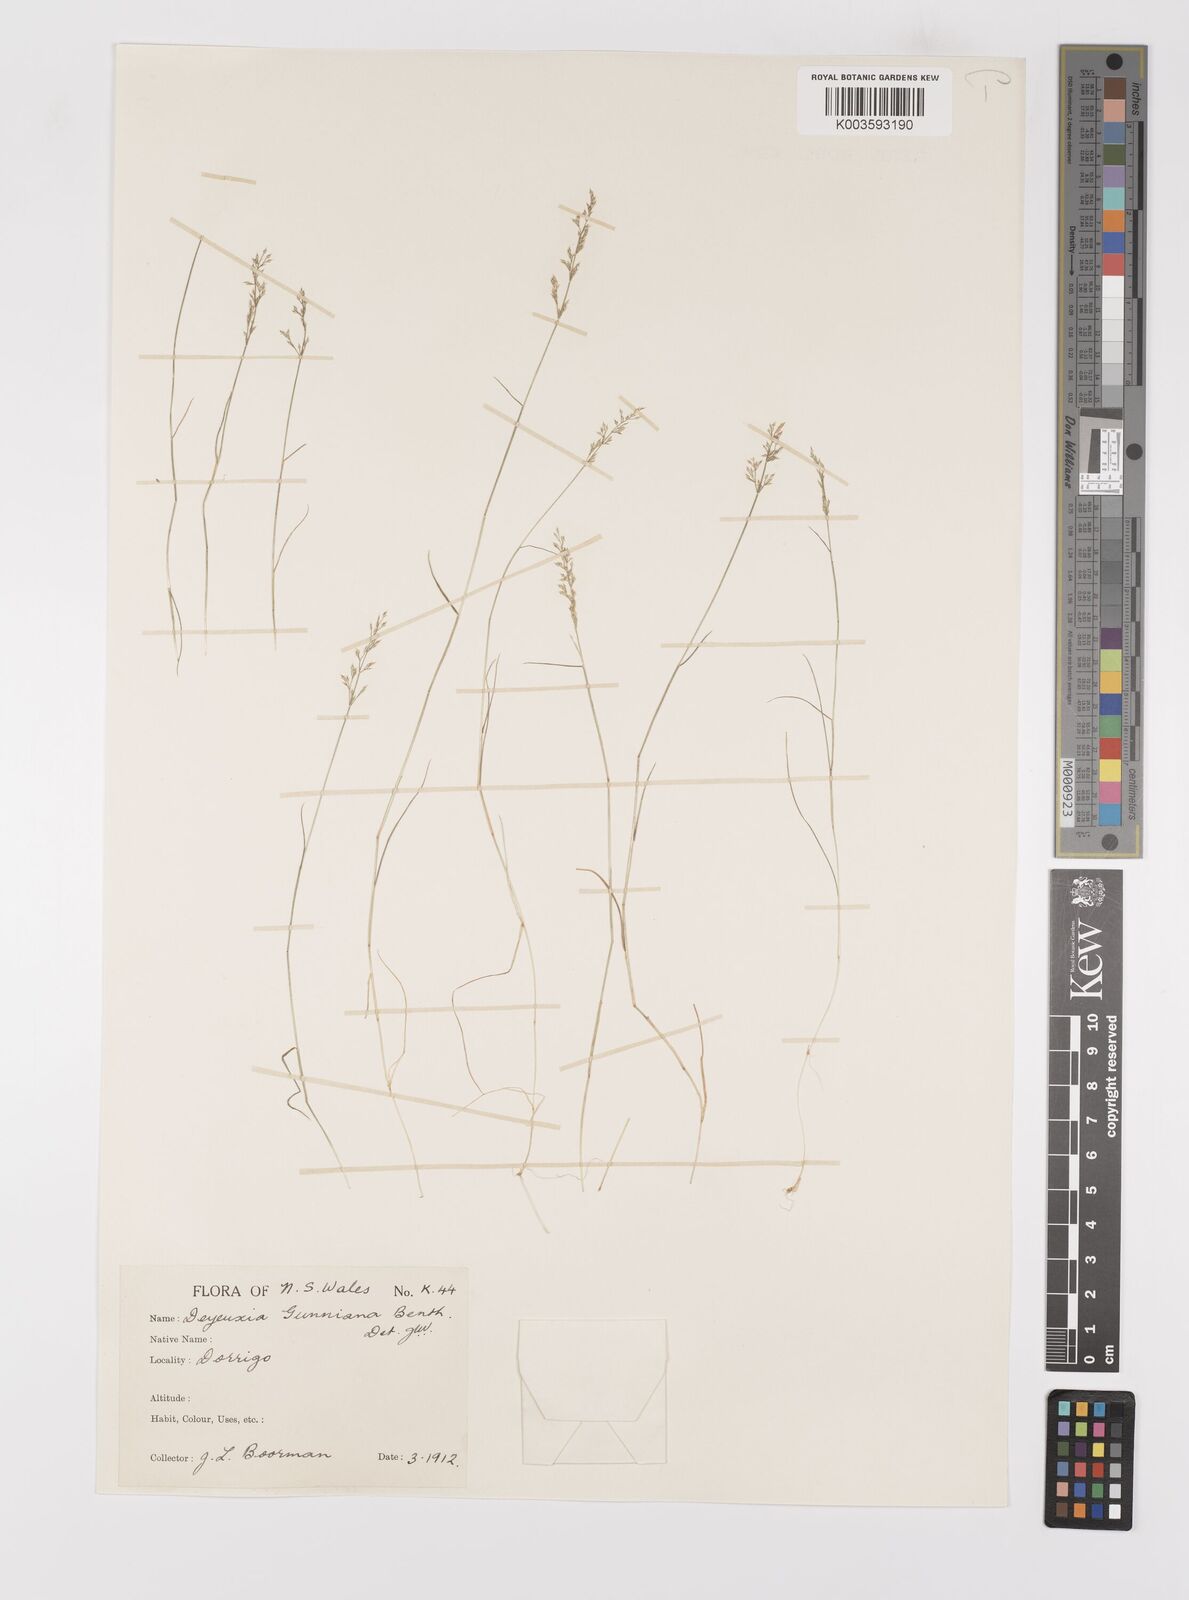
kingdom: Plantae
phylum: Tracheophyta
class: Liliopsida
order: Poales
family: Poaceae
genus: Ancistragrostis
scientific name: Ancistragrostis
